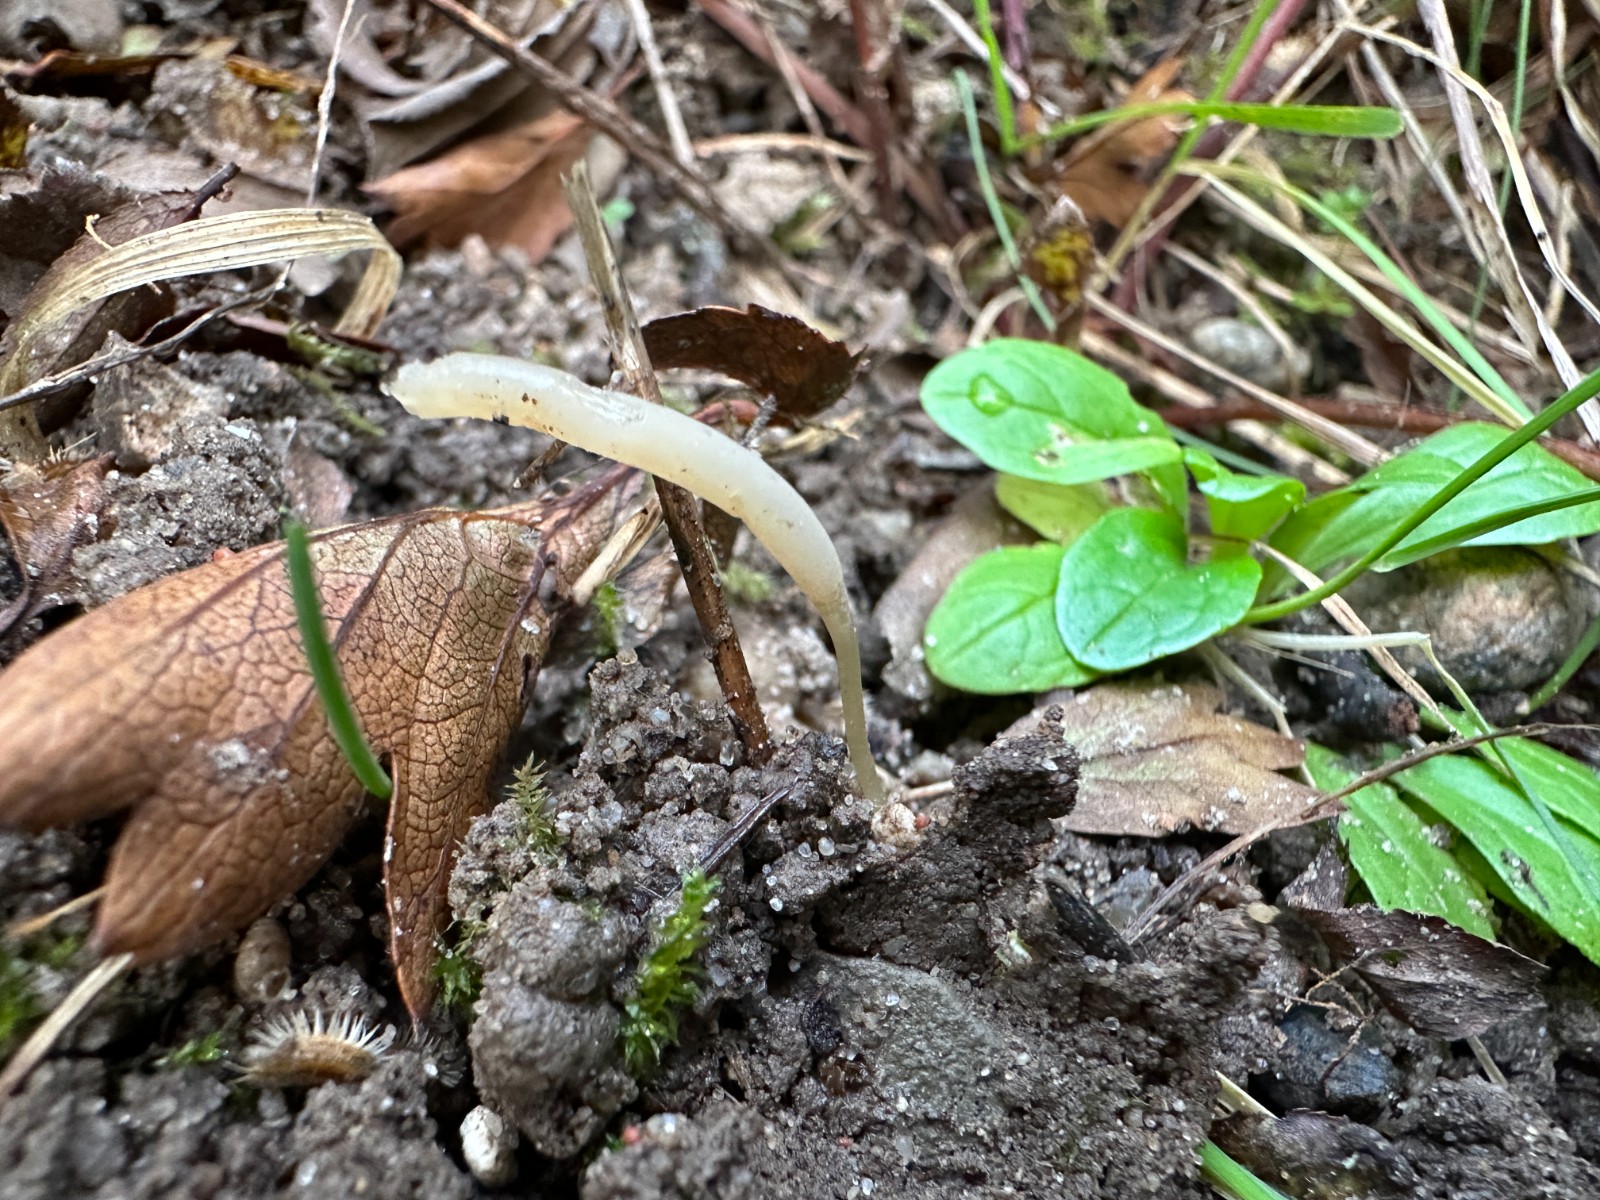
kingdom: Fungi
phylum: Basidiomycota
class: Agaricomycetes
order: Agaricales
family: Clavariaceae
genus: Clavaria
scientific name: Clavaria
